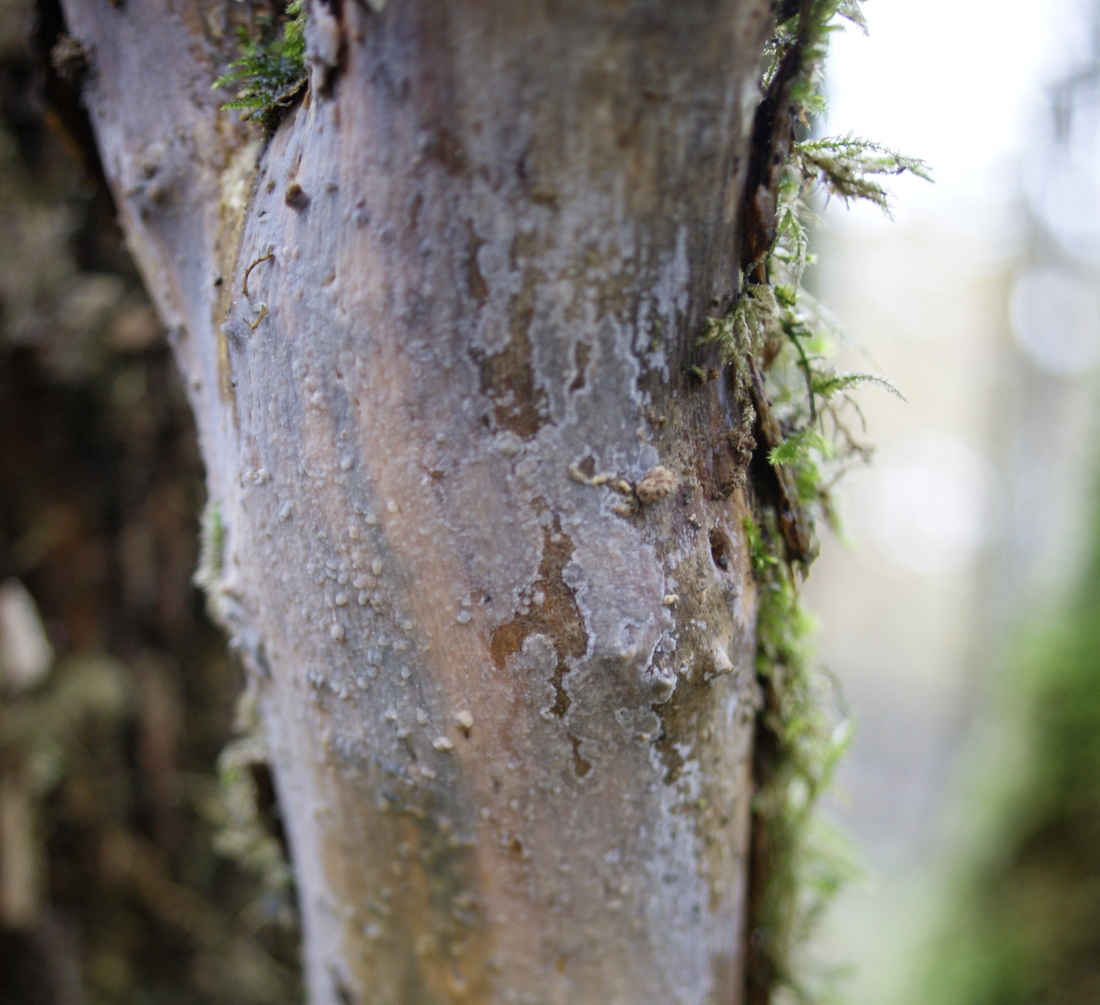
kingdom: Fungi
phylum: Basidiomycota
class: Agaricomycetes
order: Agaricales
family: Radulomycetaceae
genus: Radulomyces
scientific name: Radulomyces confluens
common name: glat naftalinskind
